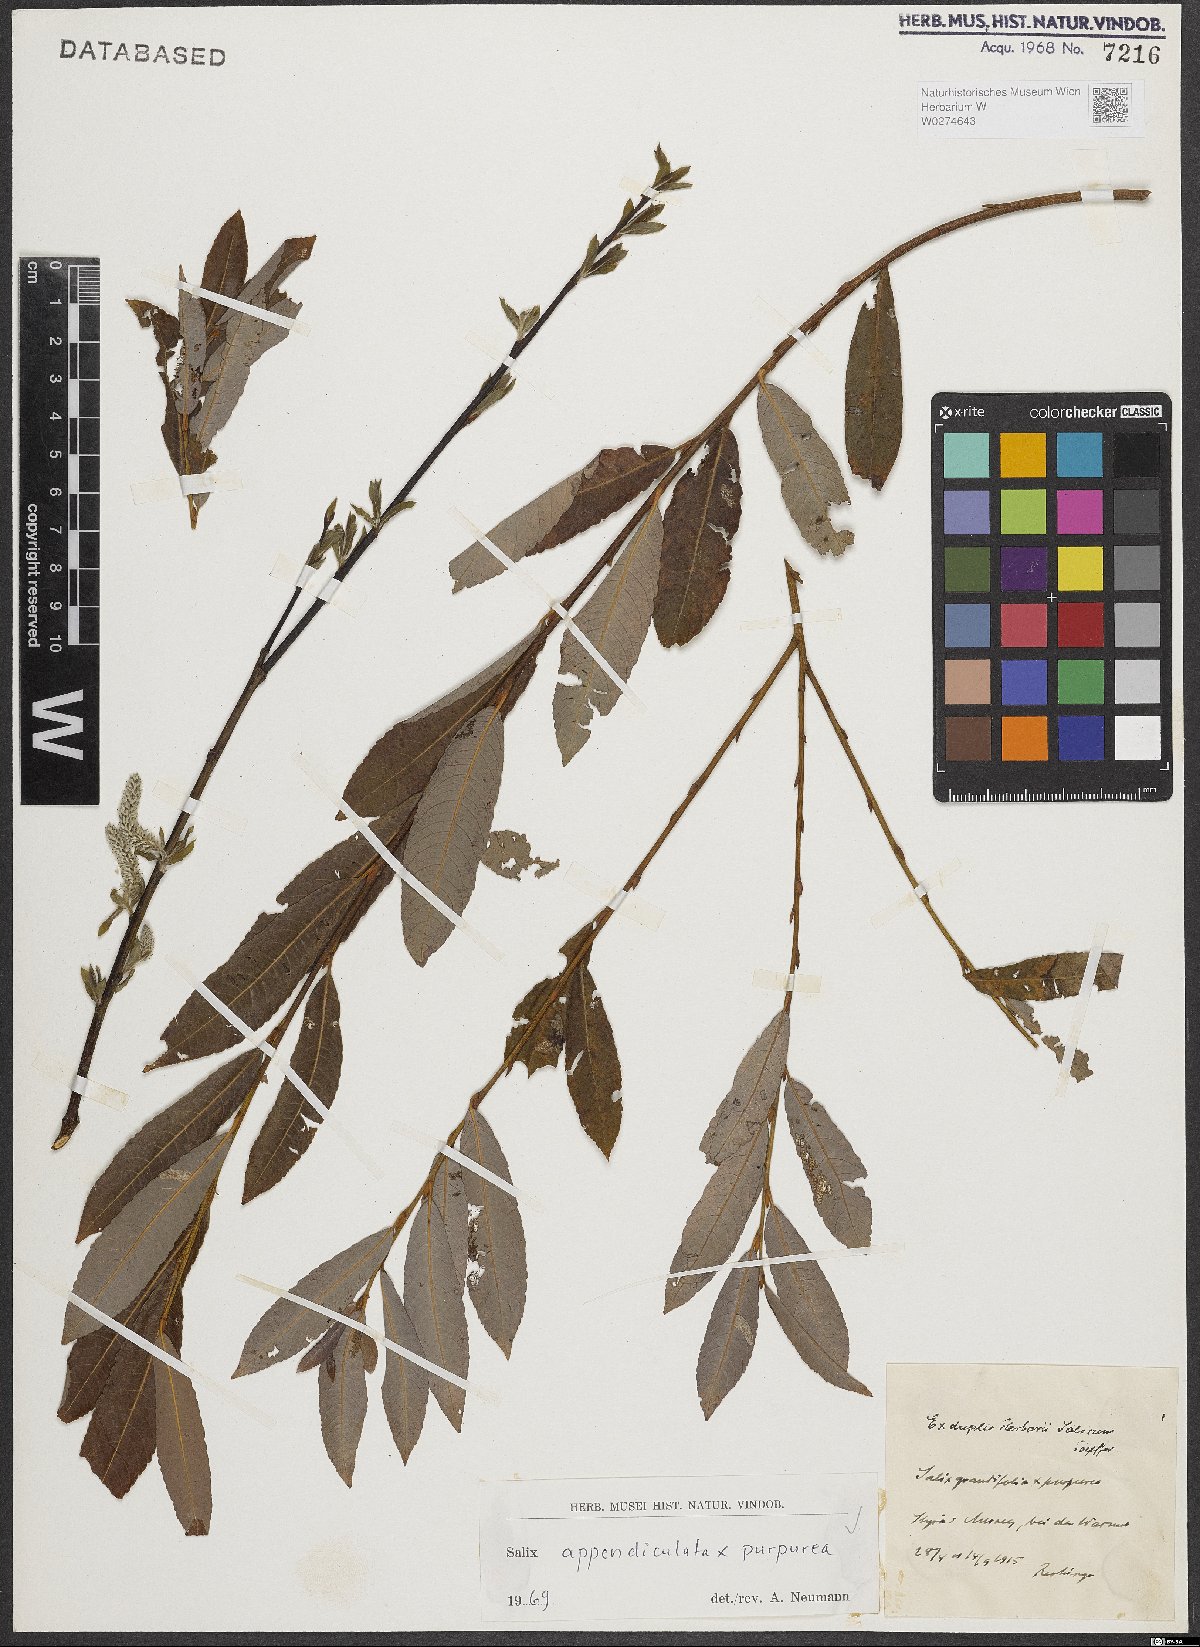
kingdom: Plantae
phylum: Tracheophyta
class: Magnoliopsida
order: Malpighiales
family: Salicaceae
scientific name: Salicaceae
